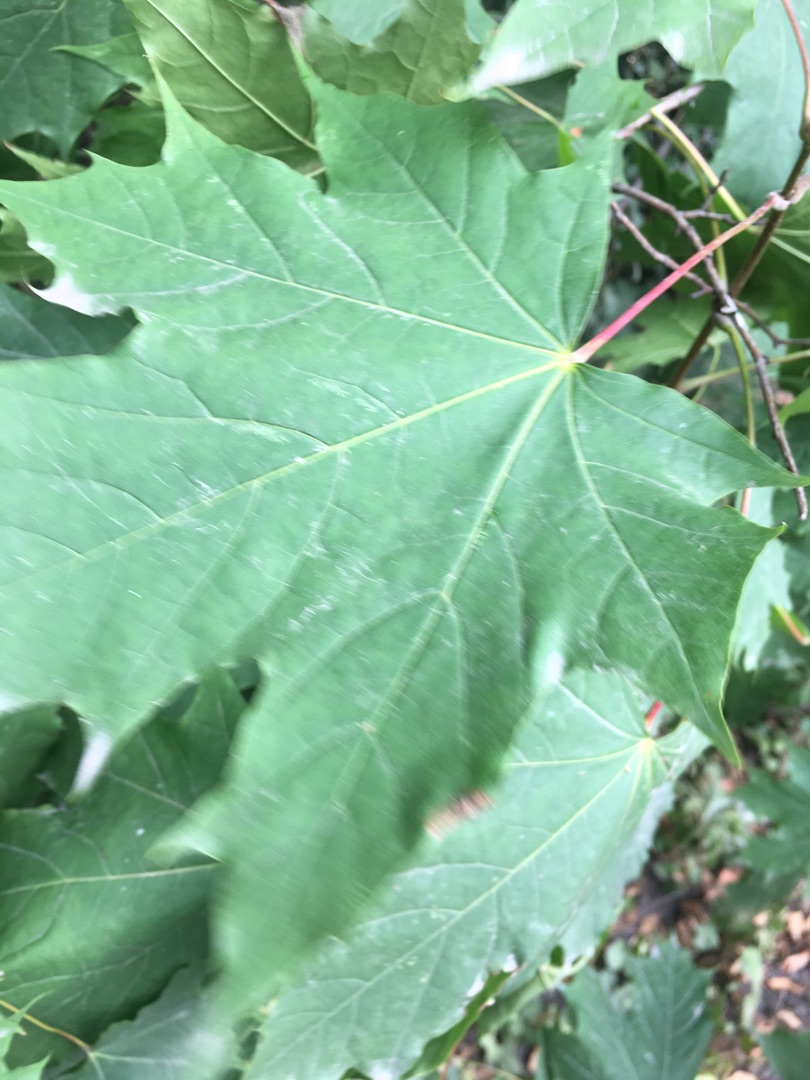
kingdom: Plantae
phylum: Tracheophyta
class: Magnoliopsida
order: Sapindales
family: Sapindaceae
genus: Acer
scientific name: Acer platanoides
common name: Spids-løn
